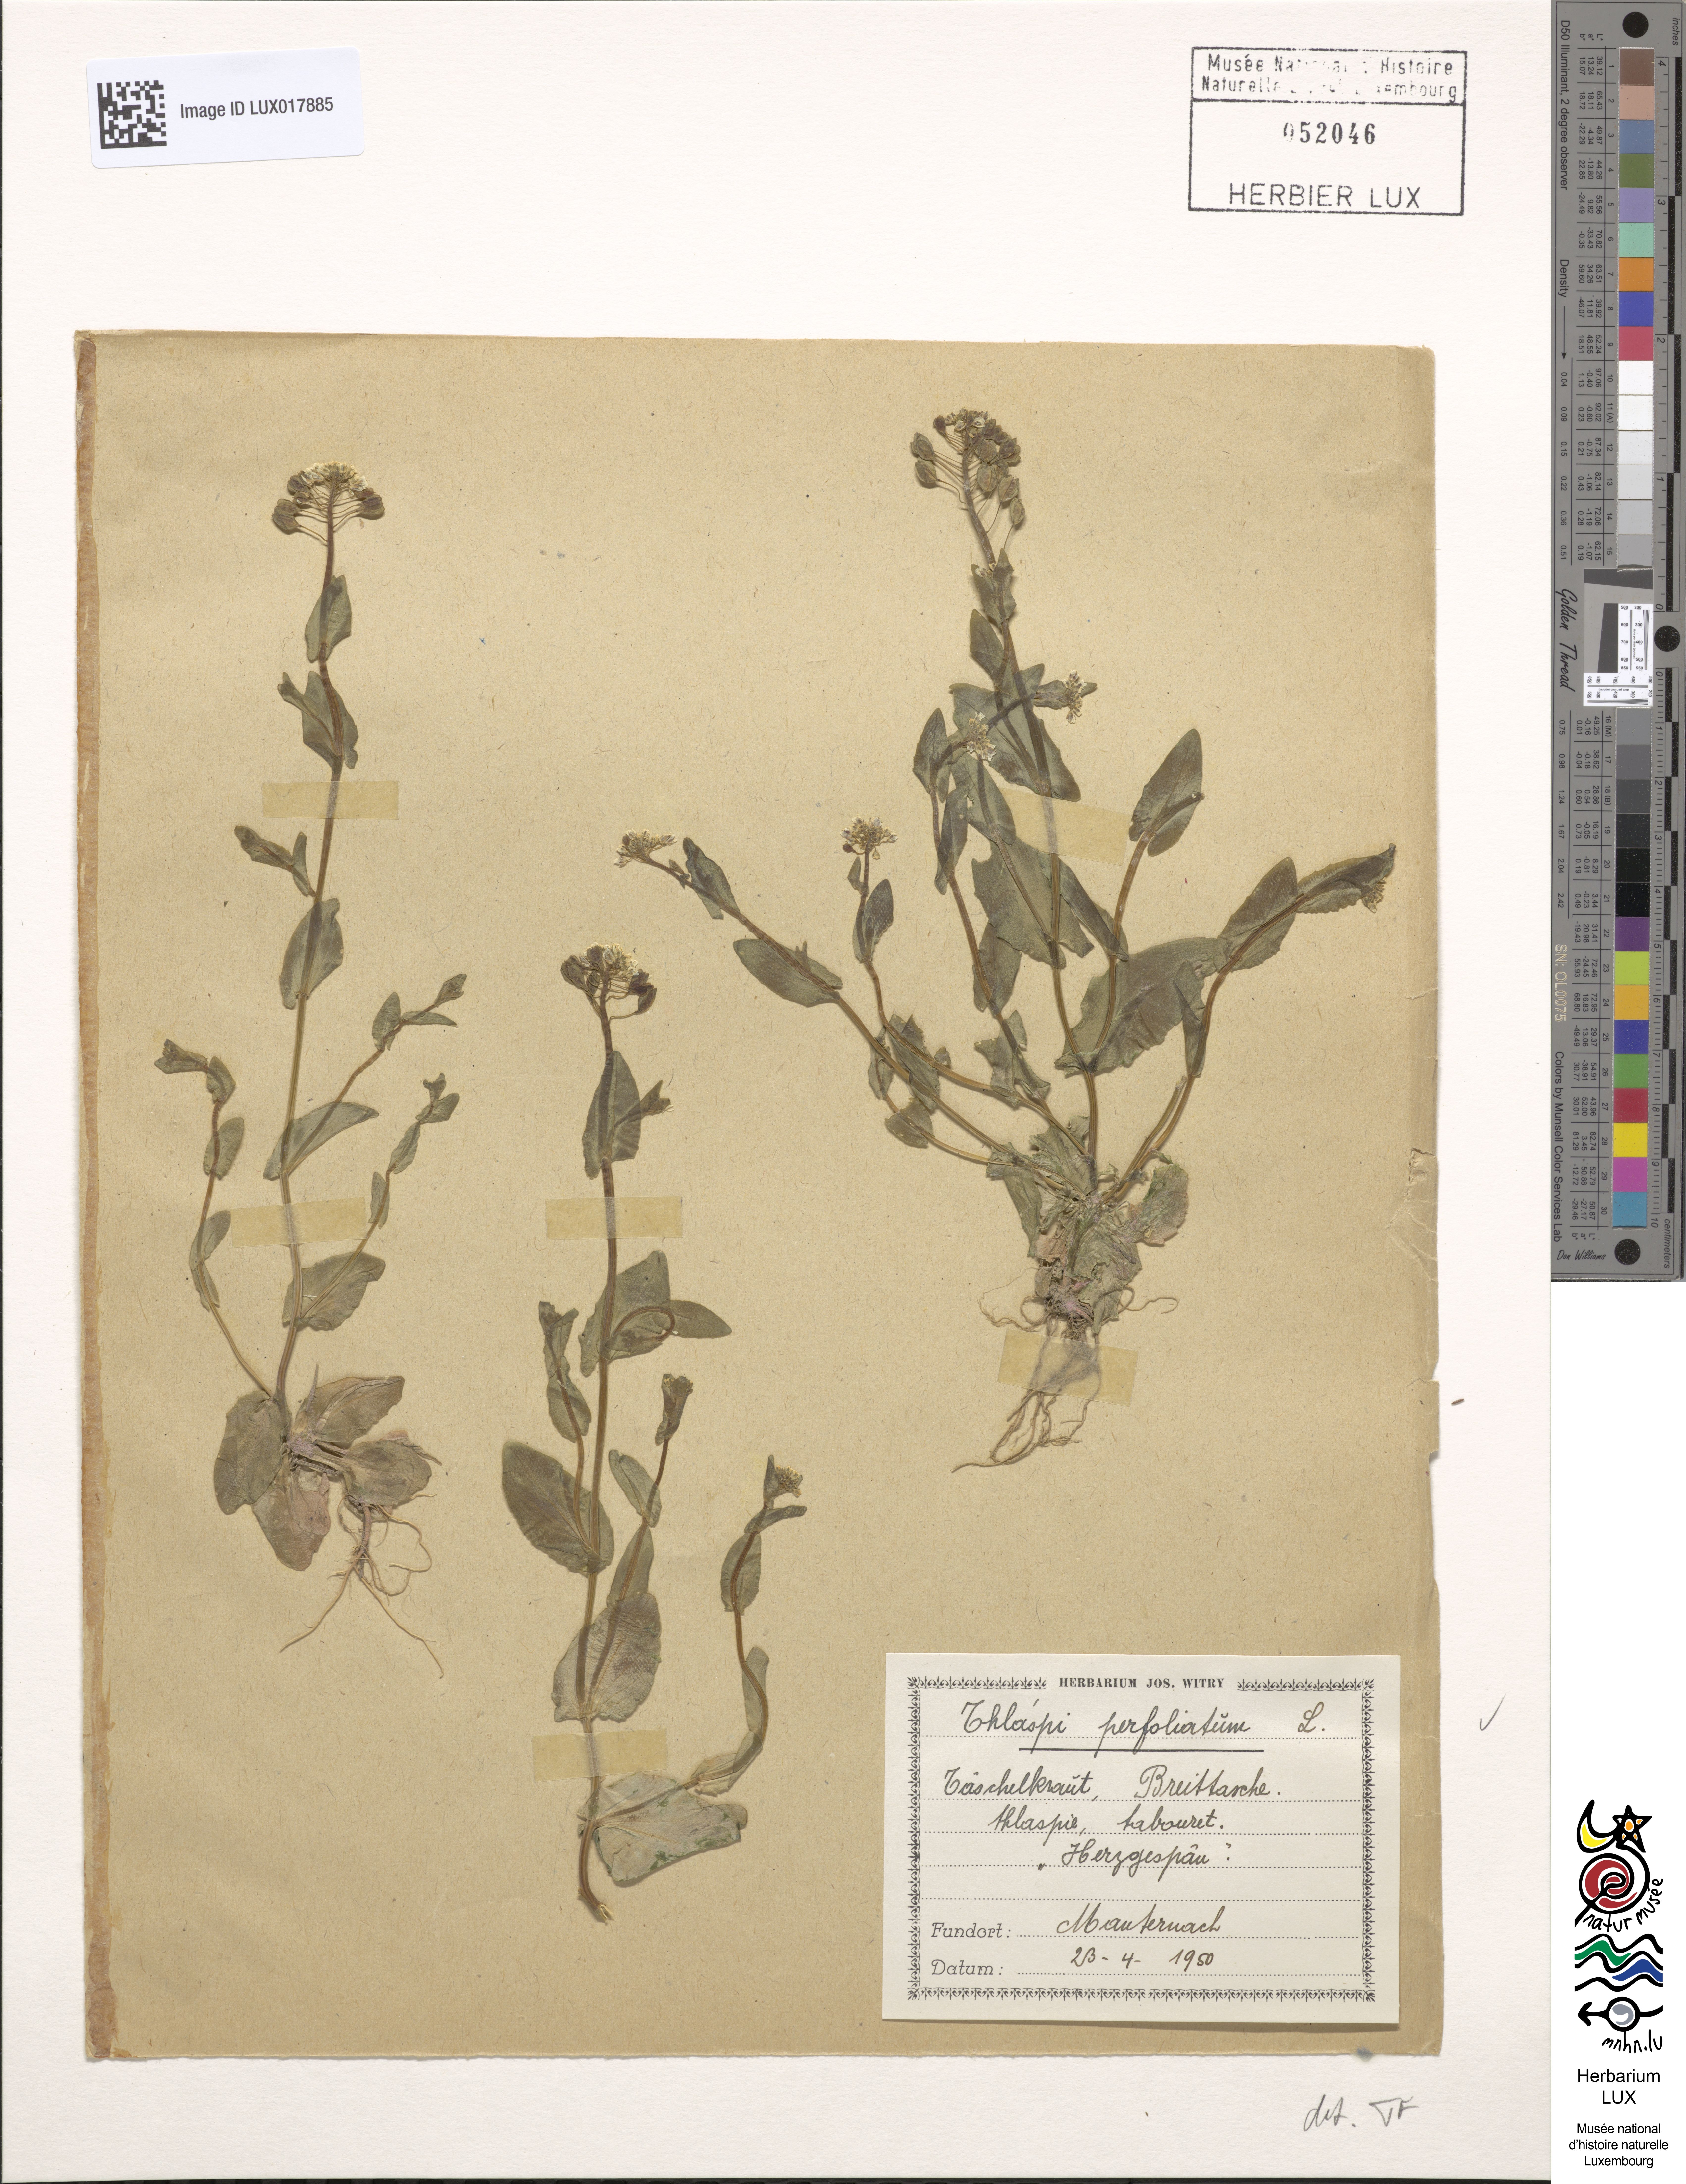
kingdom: Plantae
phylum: Tracheophyta
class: Magnoliopsida
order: Brassicales
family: Brassicaceae
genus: Noccaea
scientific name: Noccaea perfoliata
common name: Perfoliate pennycress
